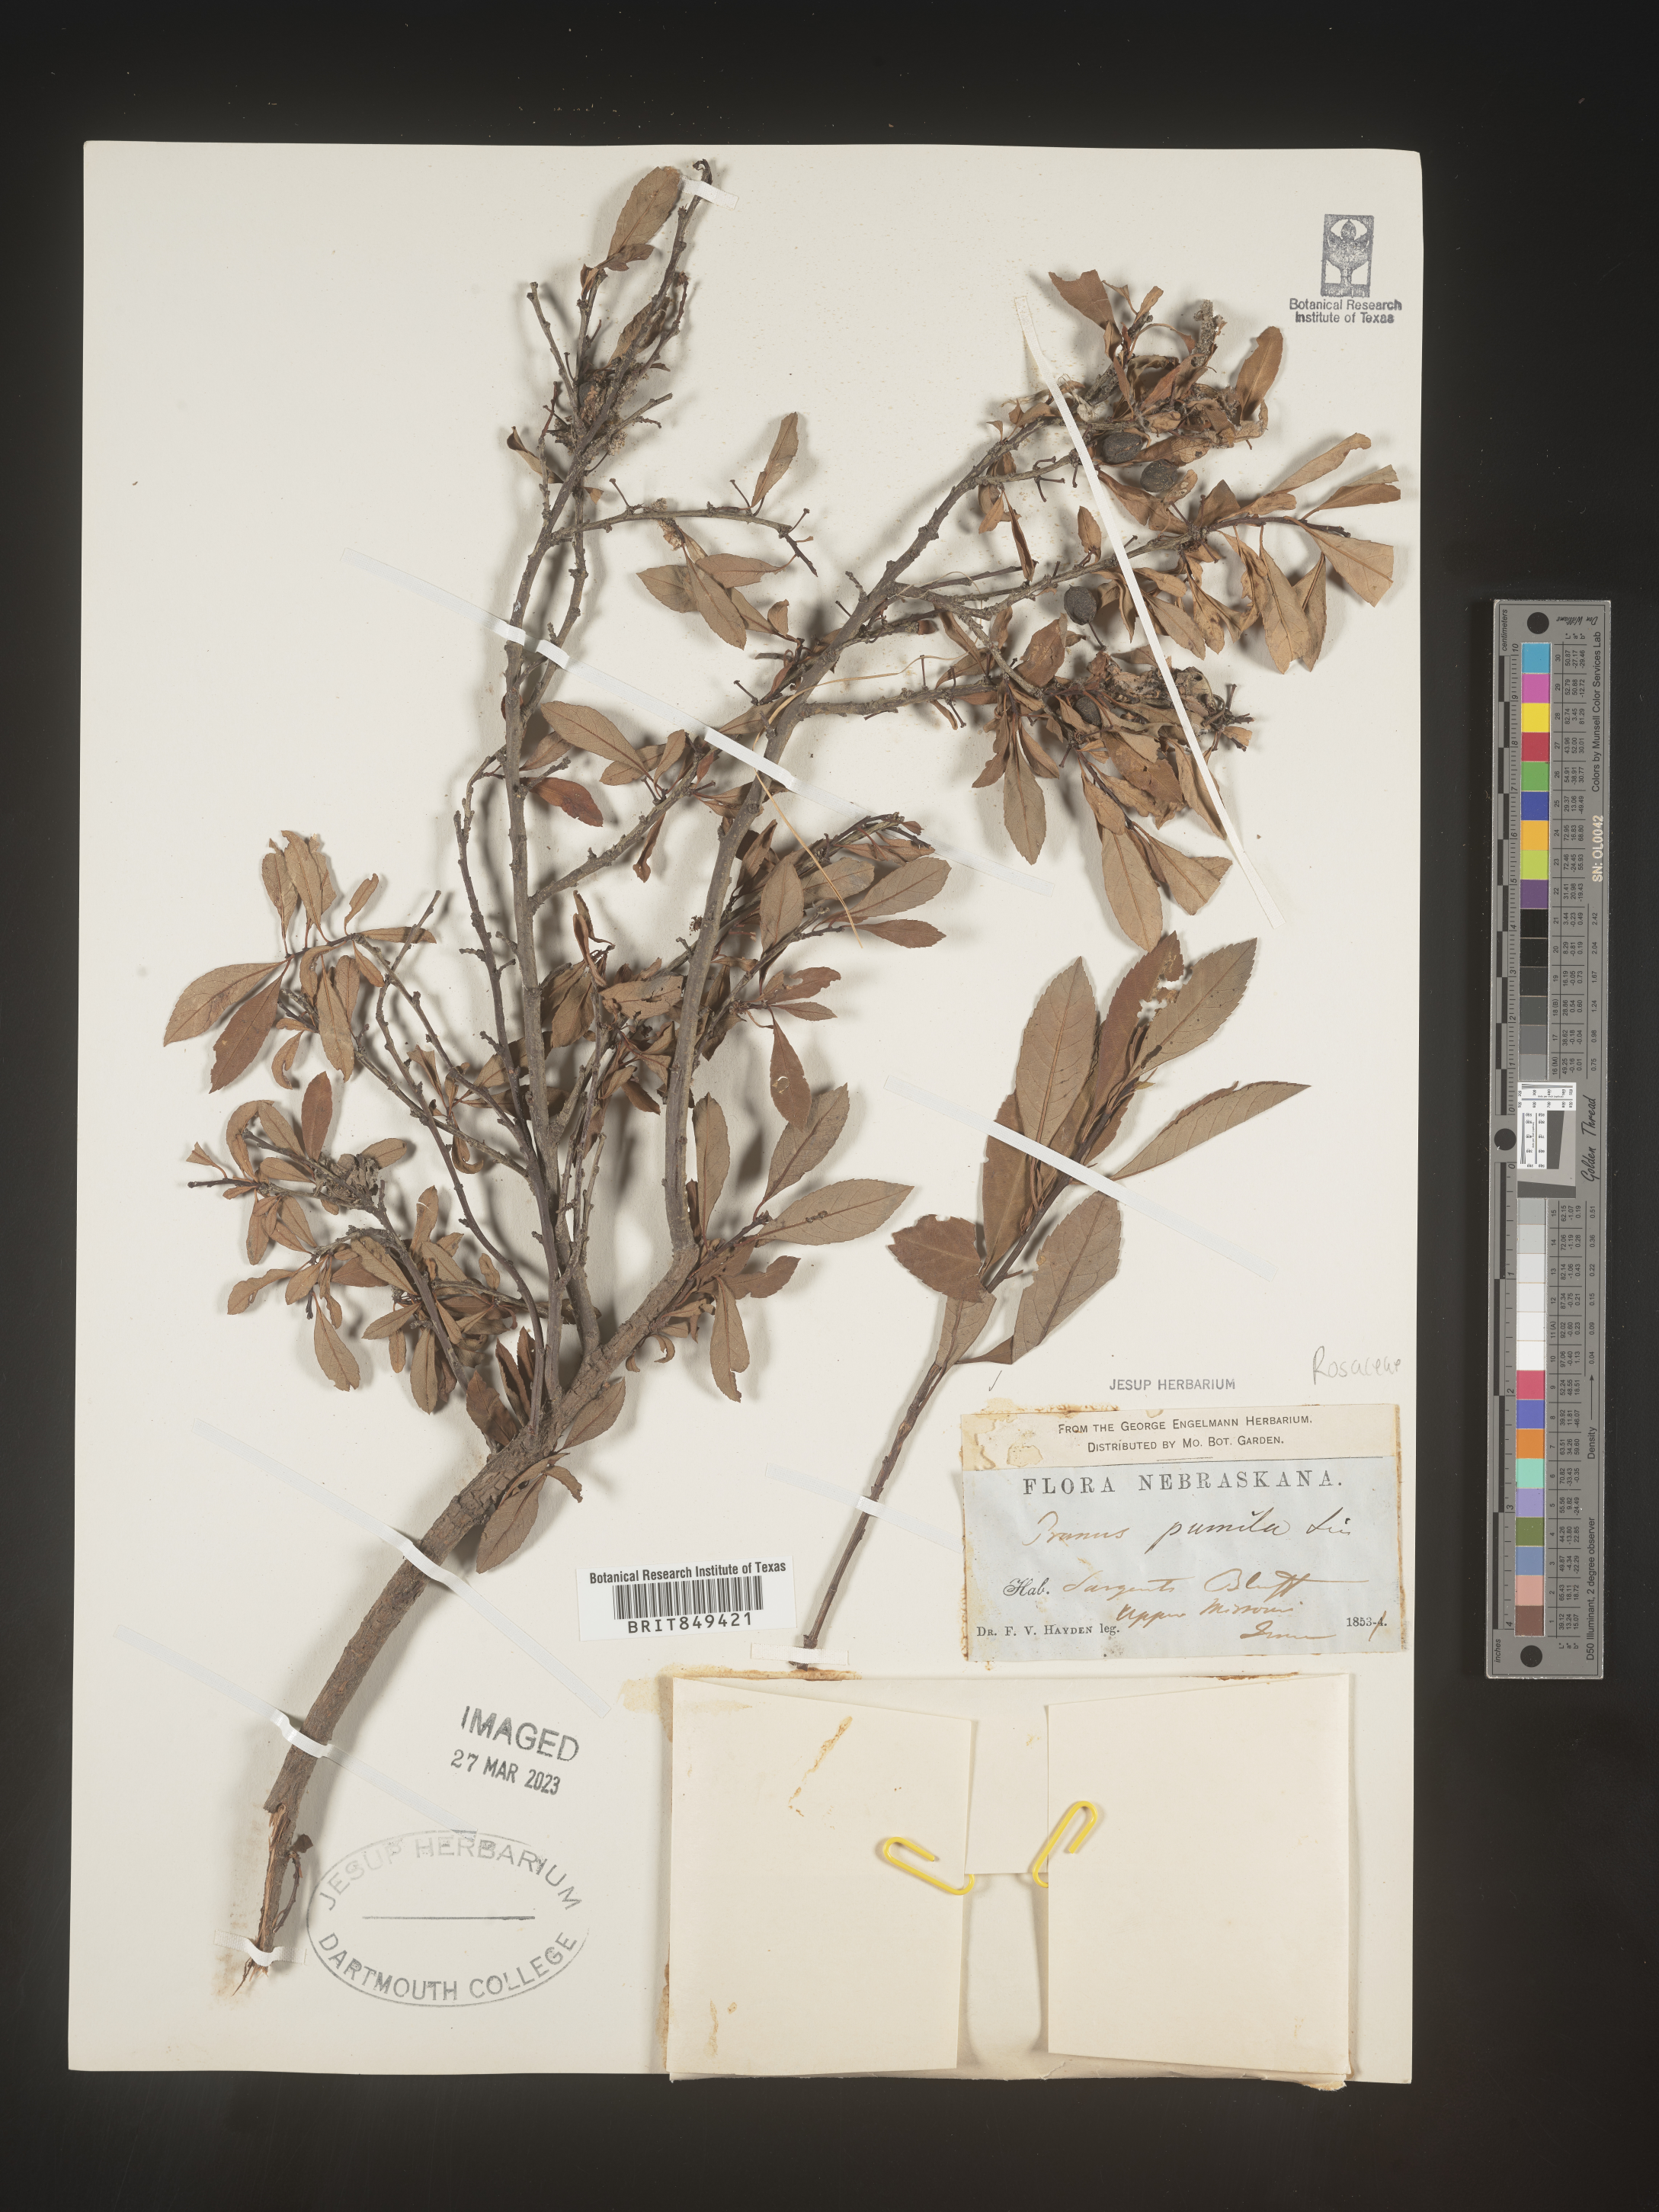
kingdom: Plantae
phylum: Tracheophyta
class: Magnoliopsida
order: Rosales
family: Rosaceae
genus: Prunus
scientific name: Prunus pumila
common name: Dwarf cherry
